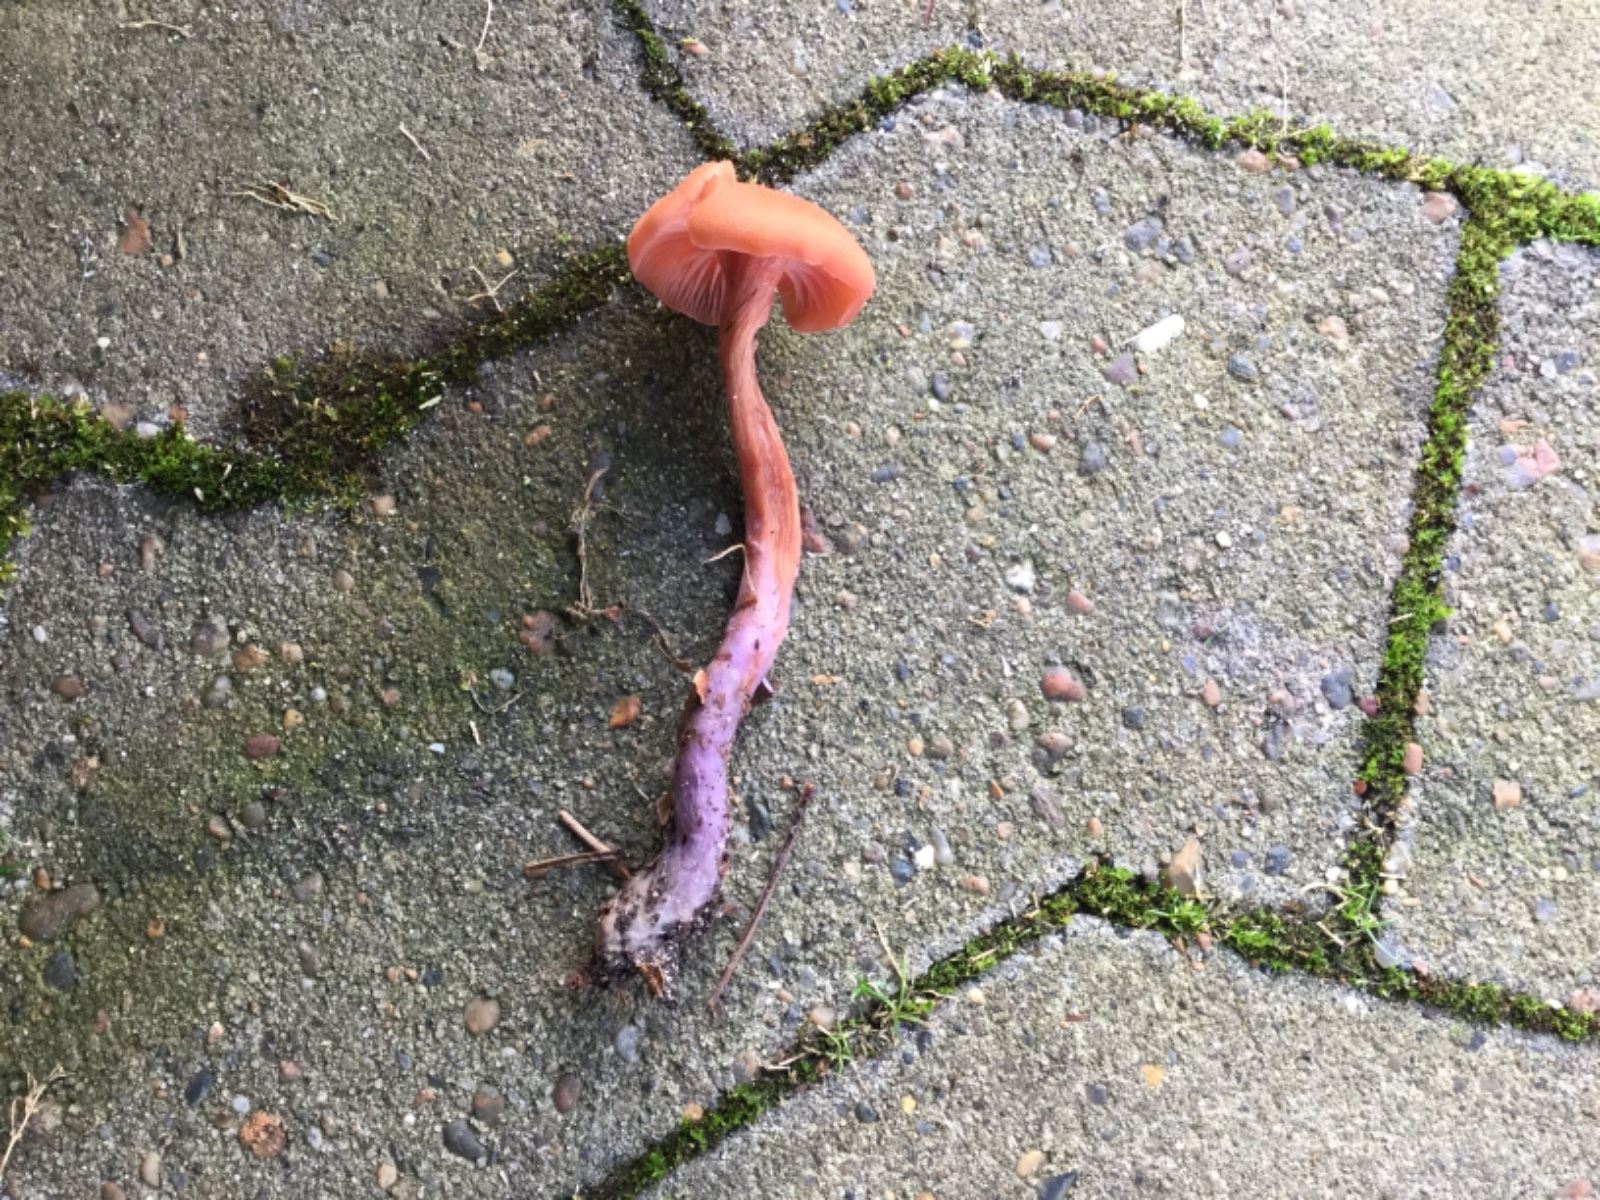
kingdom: Fungi
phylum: Basidiomycota
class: Agaricomycetes
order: Agaricales
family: Hydnangiaceae
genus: Laccaria
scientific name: Laccaria bicolor
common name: tvefarvet ametysthat
